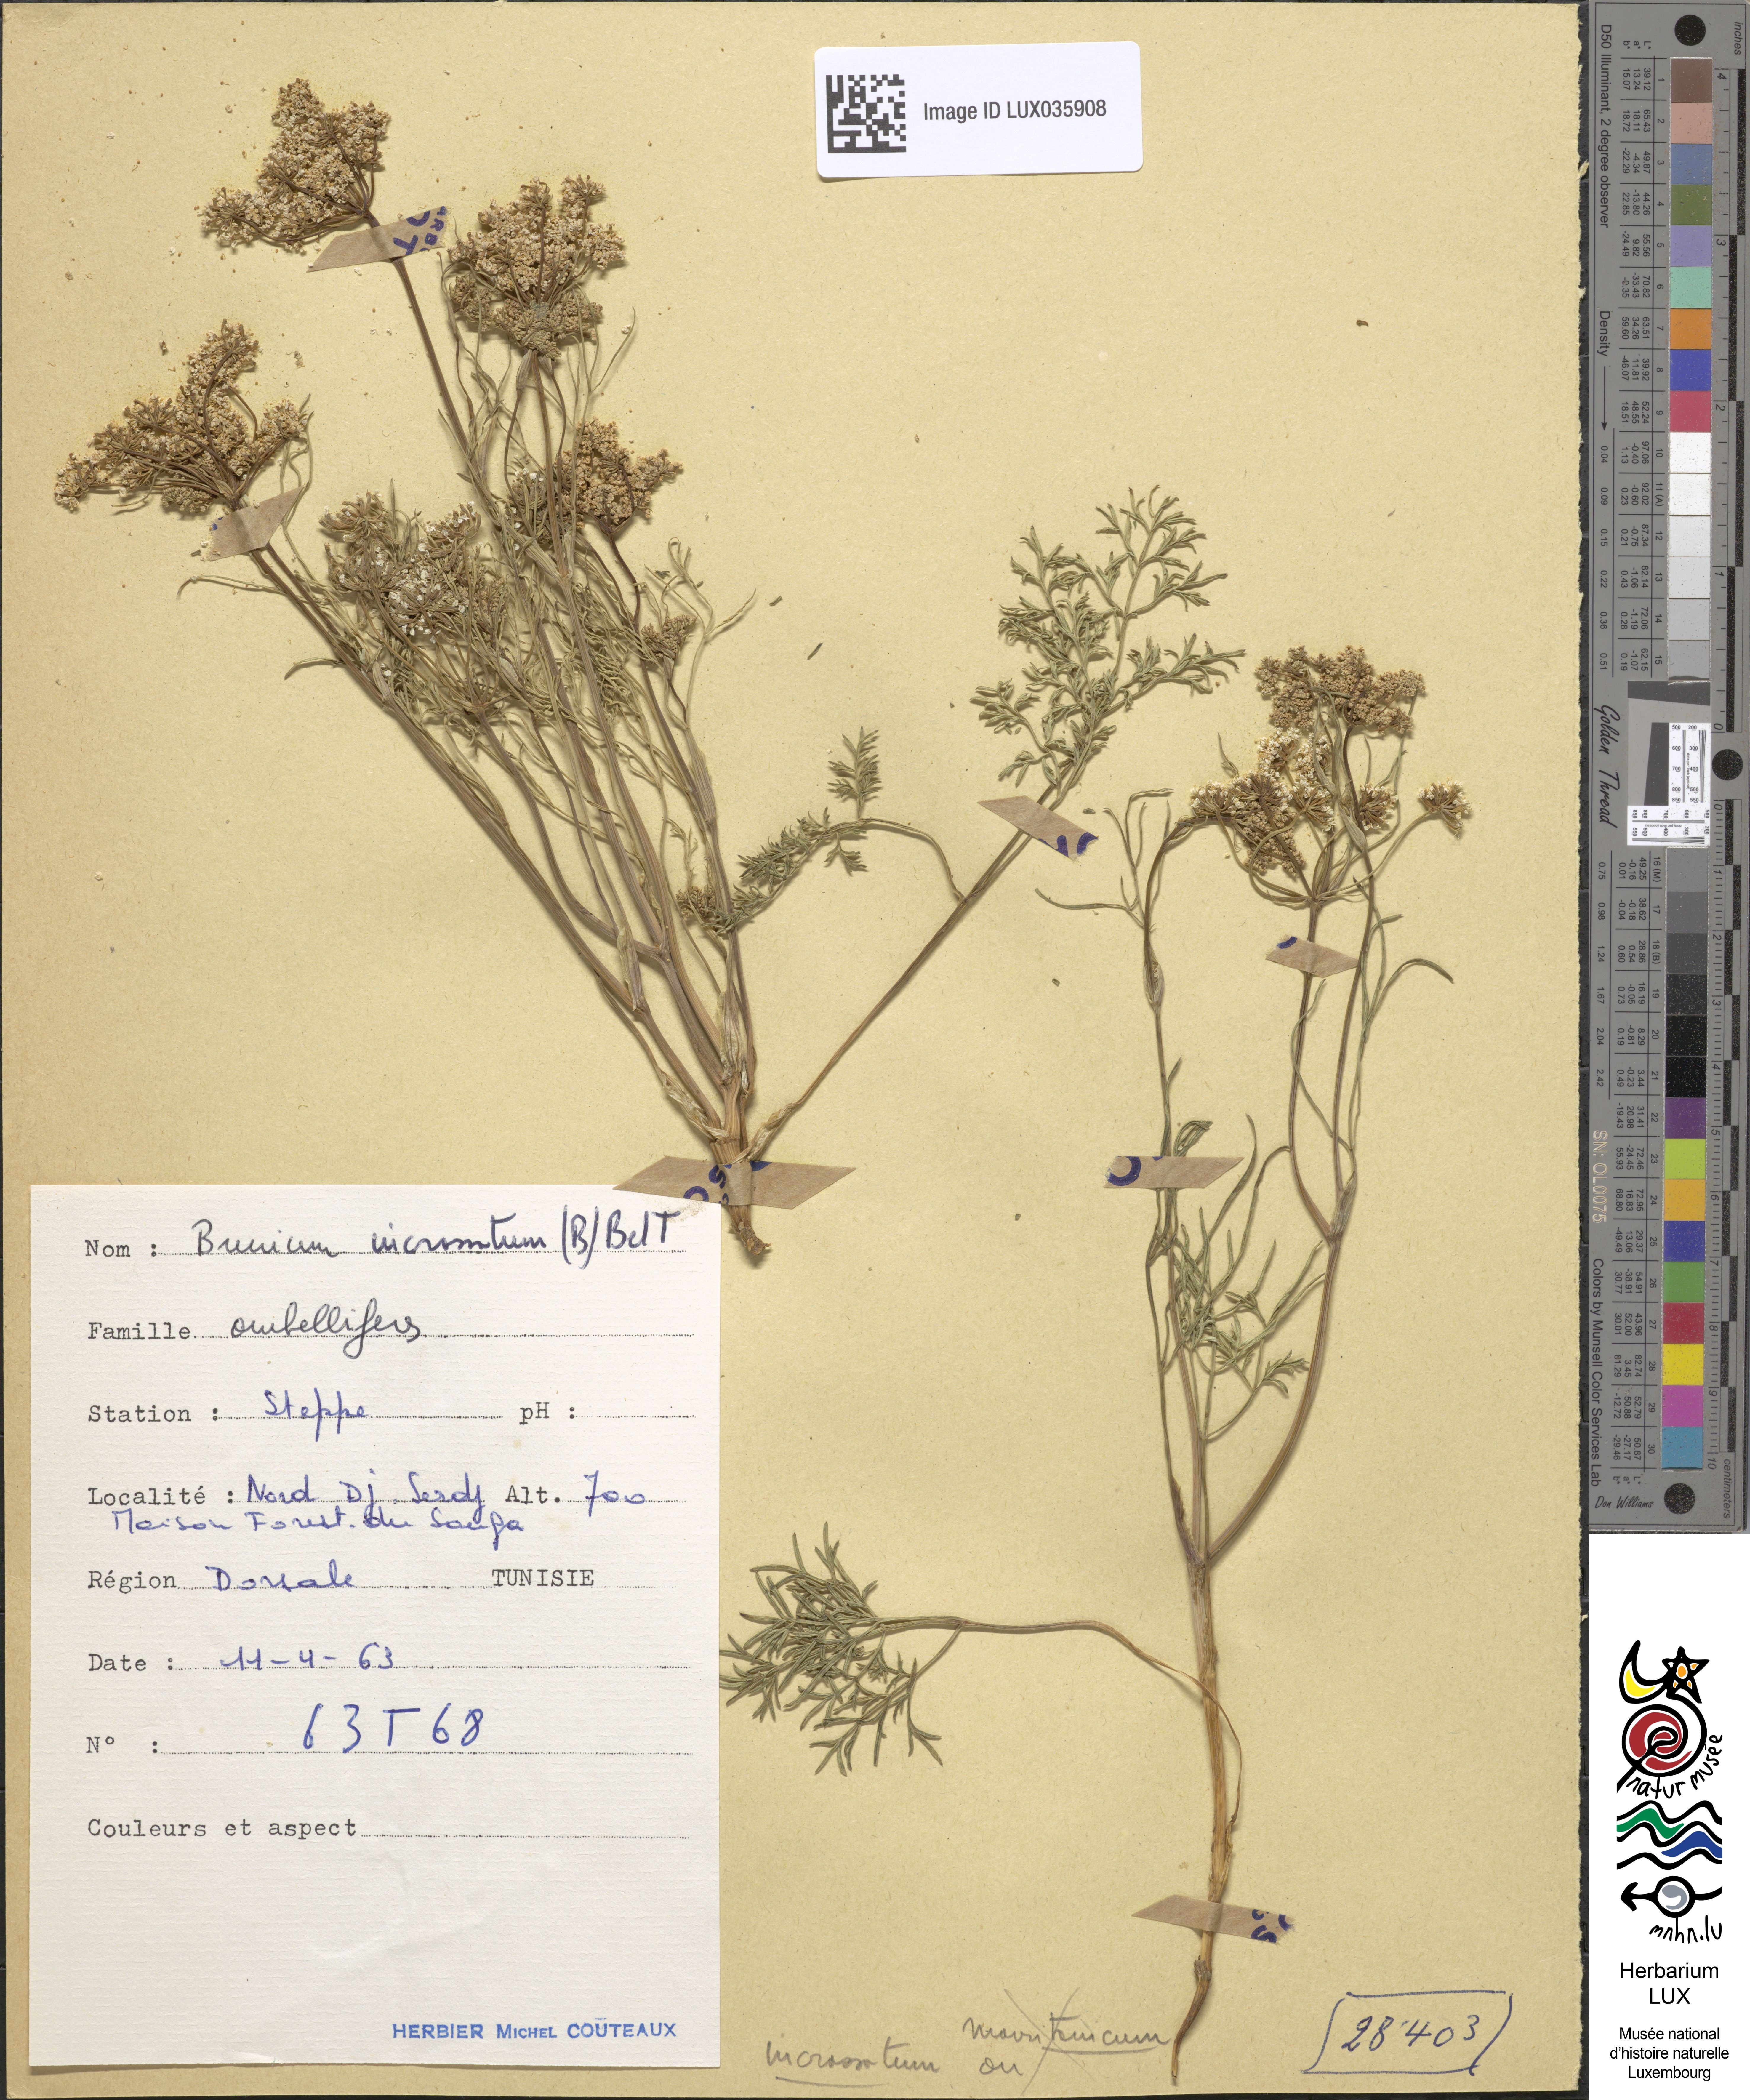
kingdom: Plantae
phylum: Tracheophyta
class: Magnoliopsida
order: Apiales
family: Apiaceae
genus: Bunium
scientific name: Bunium pachypodum
